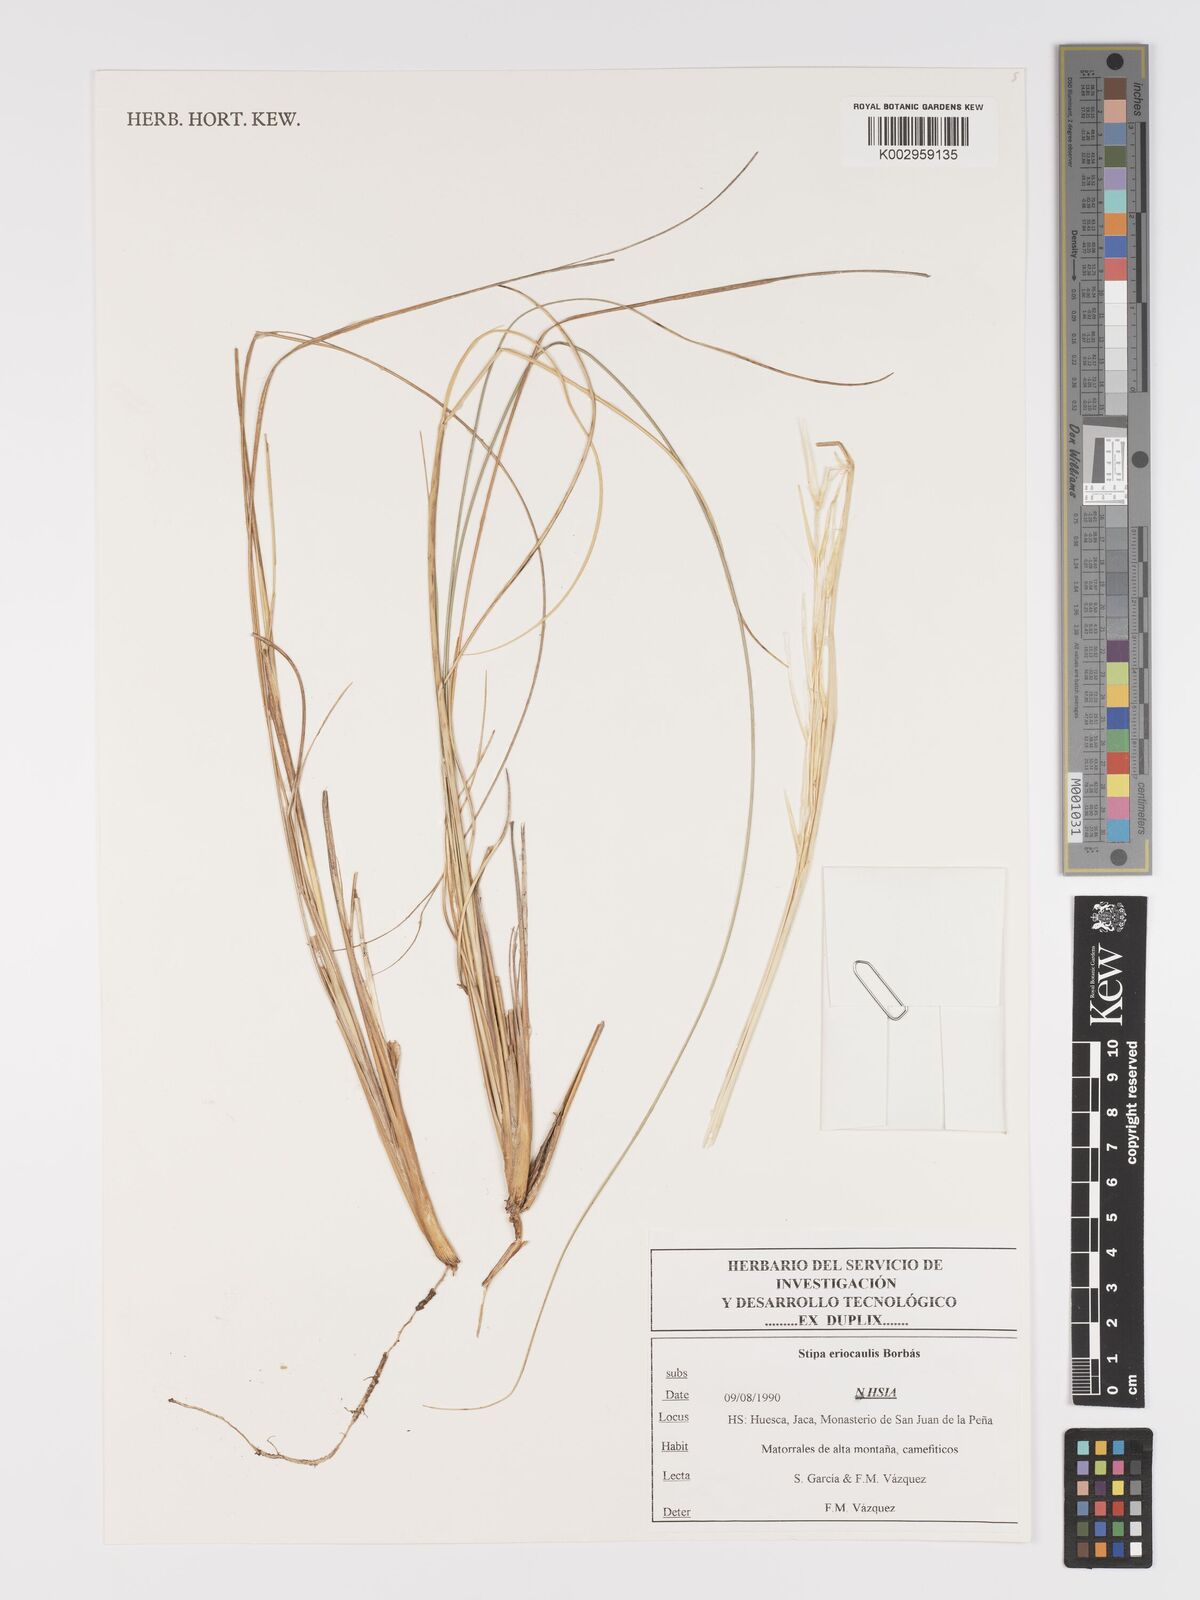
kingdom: Plantae
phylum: Tracheophyta
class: Liliopsida
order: Poales
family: Poaceae
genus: Stipa
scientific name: Stipa pennata
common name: European feather grass
